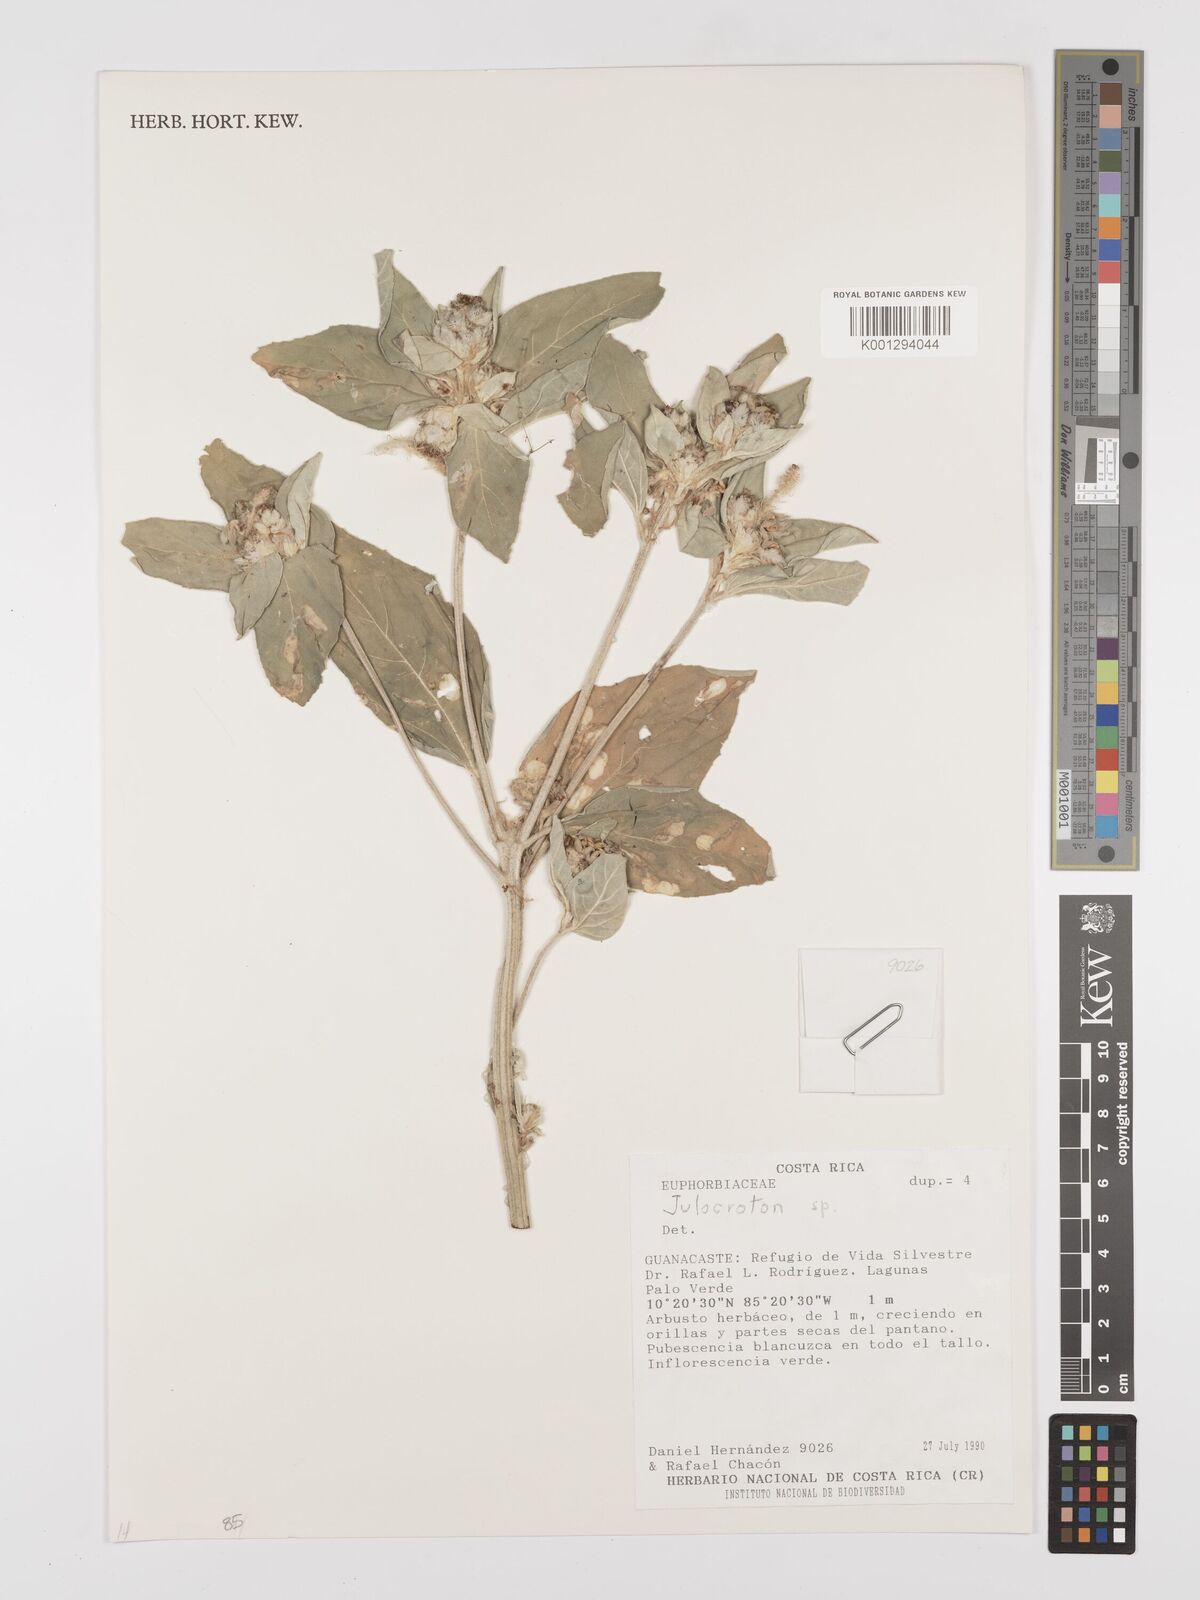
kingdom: Plantae
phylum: Tracheophyta
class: Magnoliopsida
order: Malpighiales
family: Euphorbiaceae
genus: Croton
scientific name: Croton
